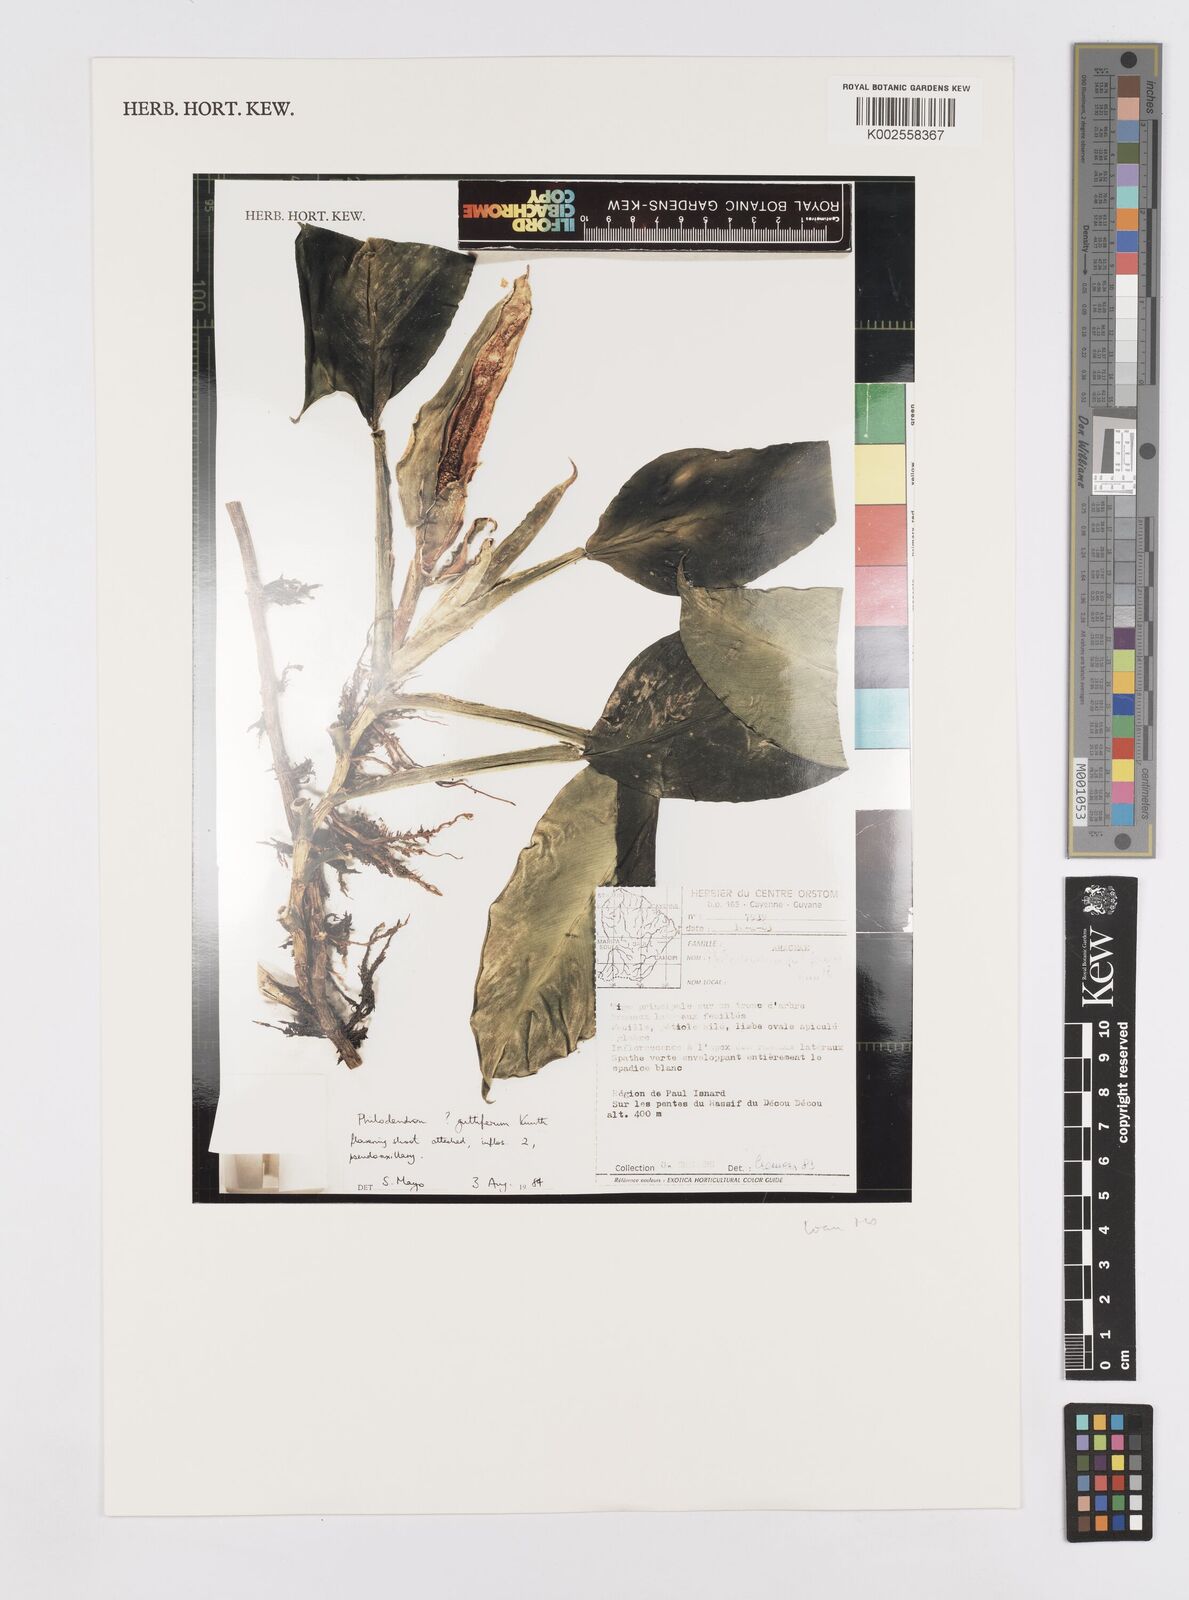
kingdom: Plantae
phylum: Tracheophyta
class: Liliopsida
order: Alismatales
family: Araceae
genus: Philodendron
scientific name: Philodendron guttiferum
